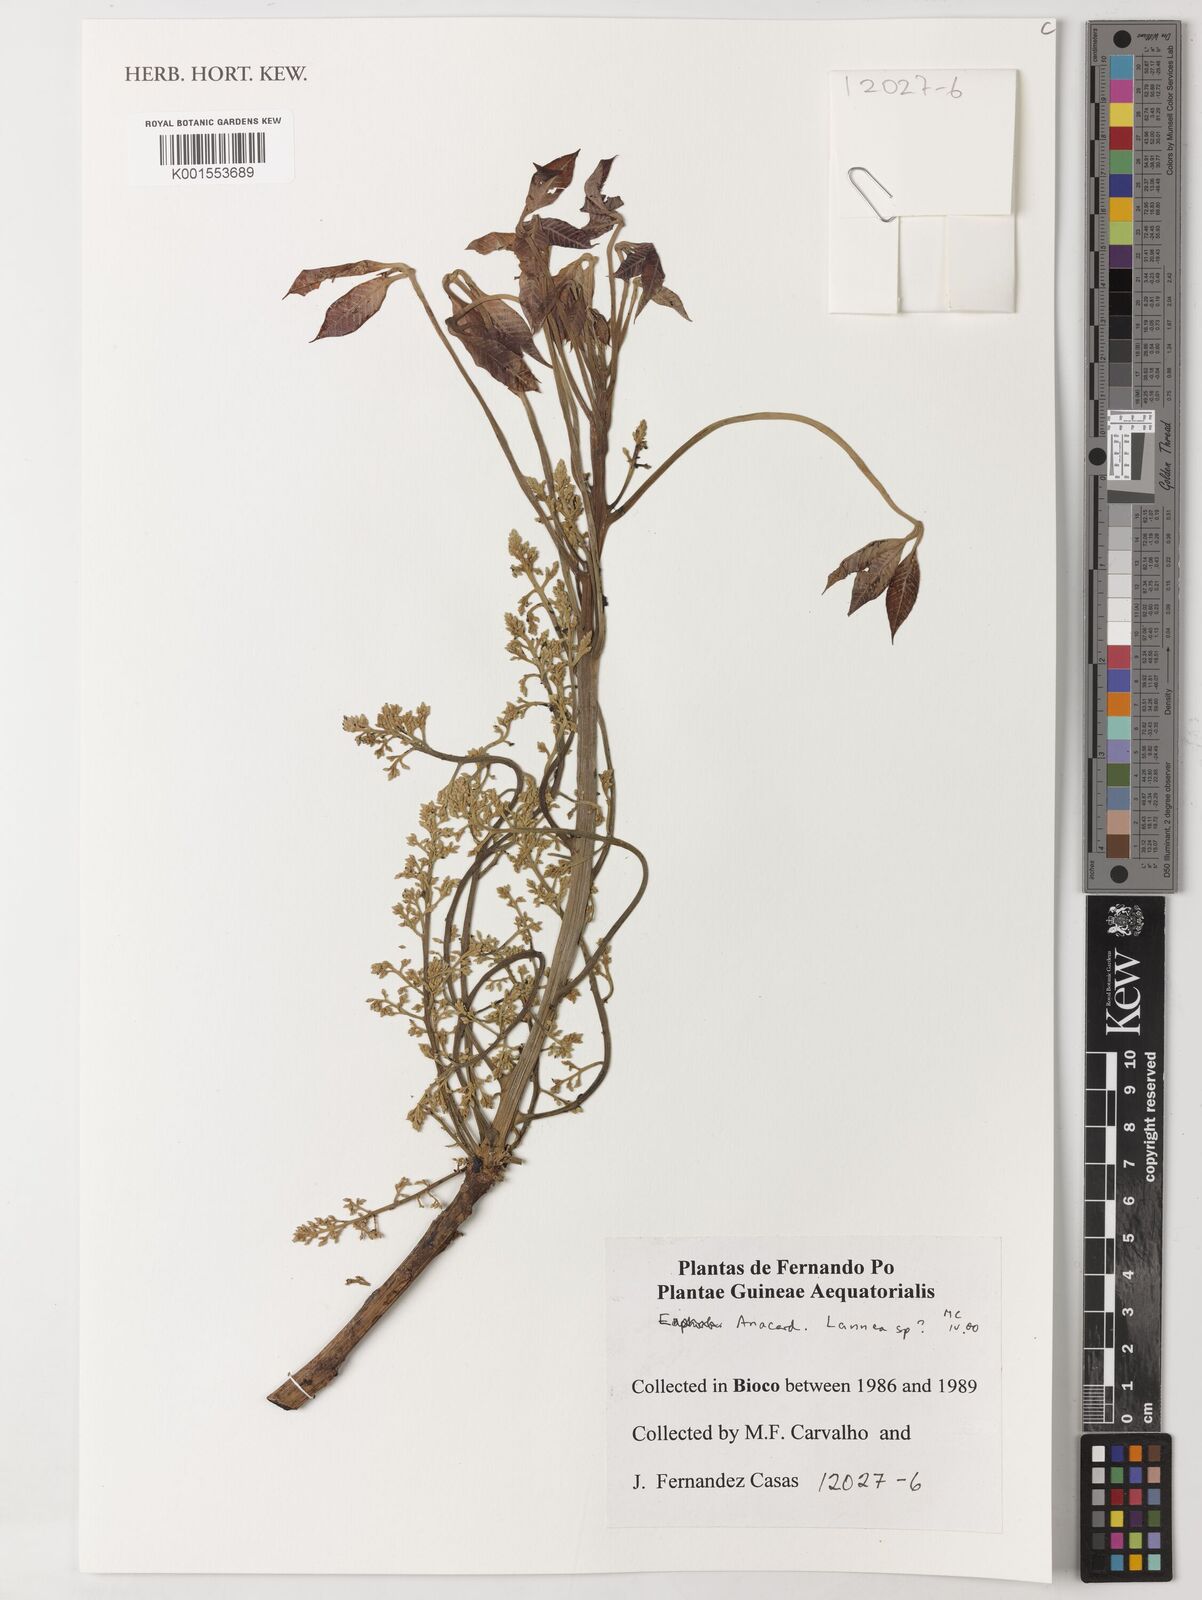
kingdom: Plantae
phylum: Tracheophyta
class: Magnoliopsida
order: Sapindales
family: Anacardiaceae
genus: Lannea
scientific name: Lannea
